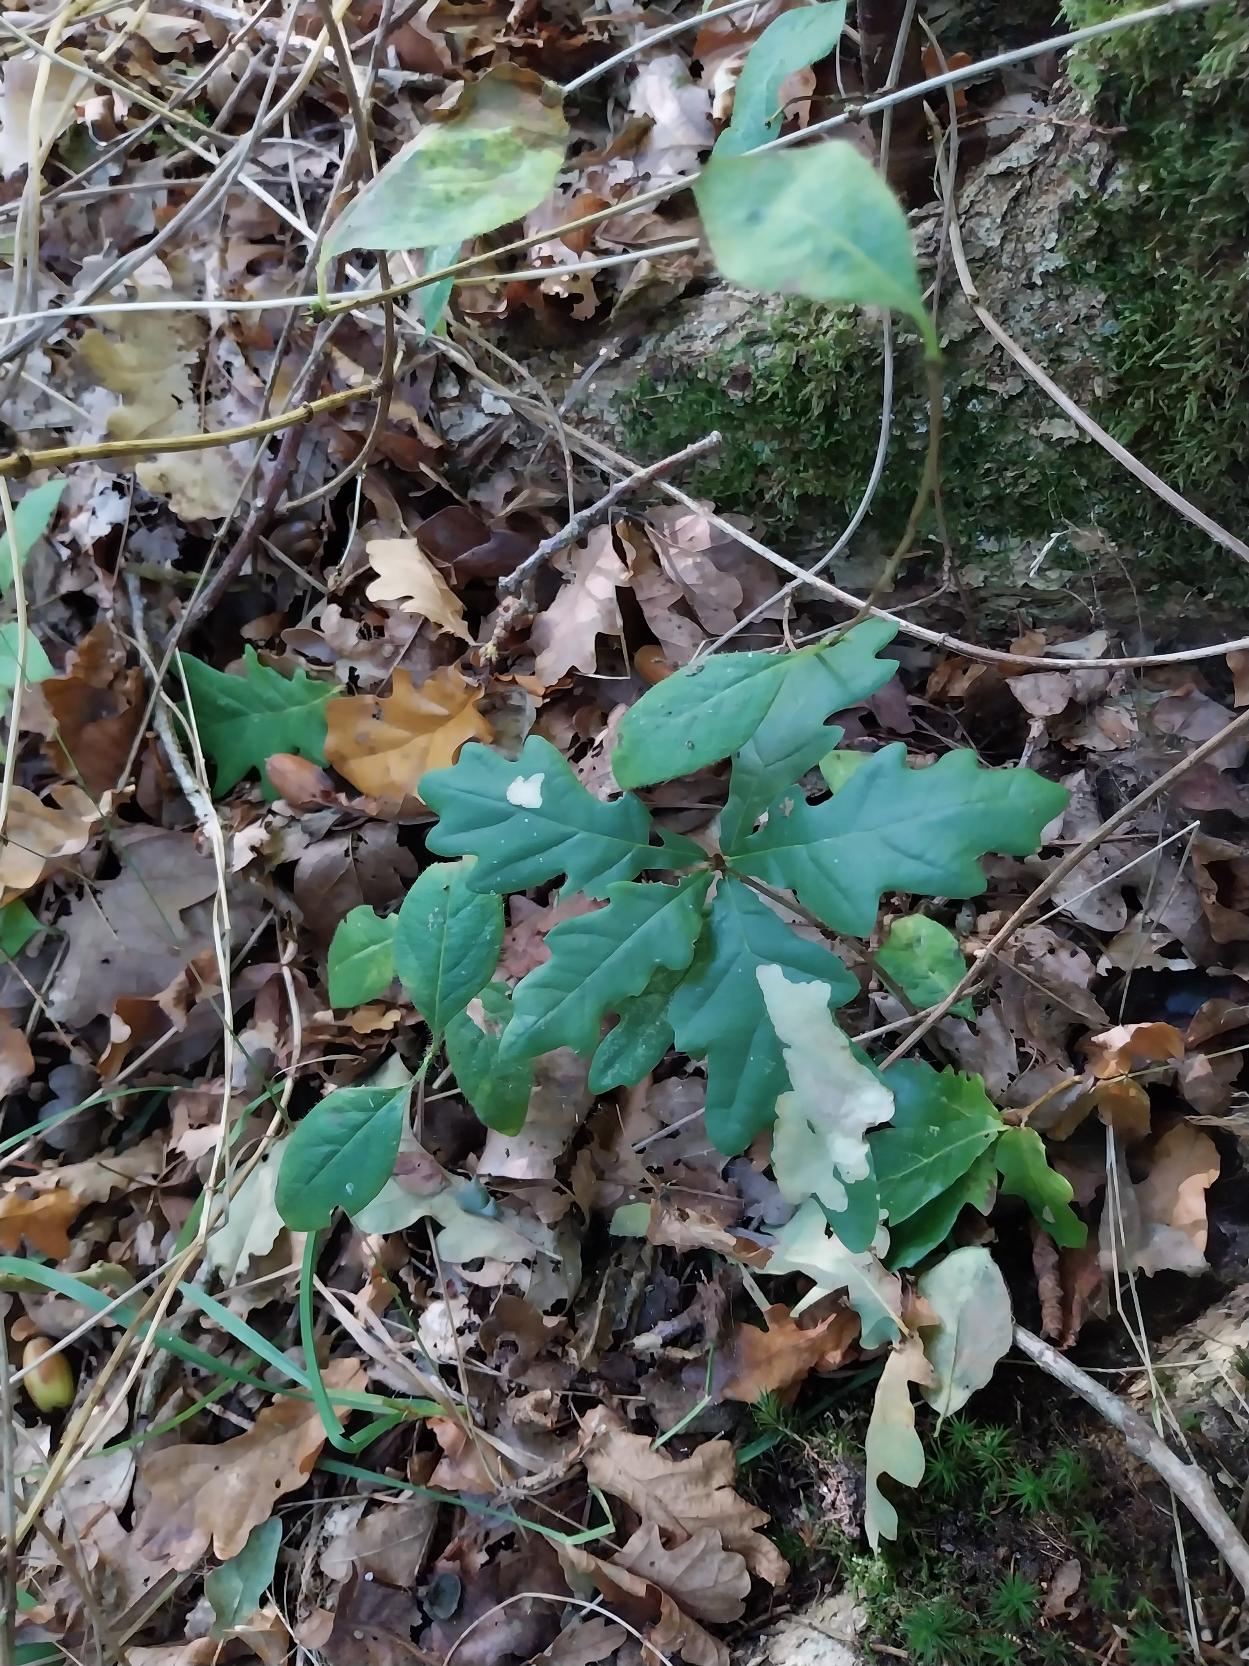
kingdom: Plantae
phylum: Tracheophyta
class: Magnoliopsida
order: Fagales
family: Fagaceae
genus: Quercus
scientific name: Quercus robur
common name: Stilk-eg/almindelig eg
